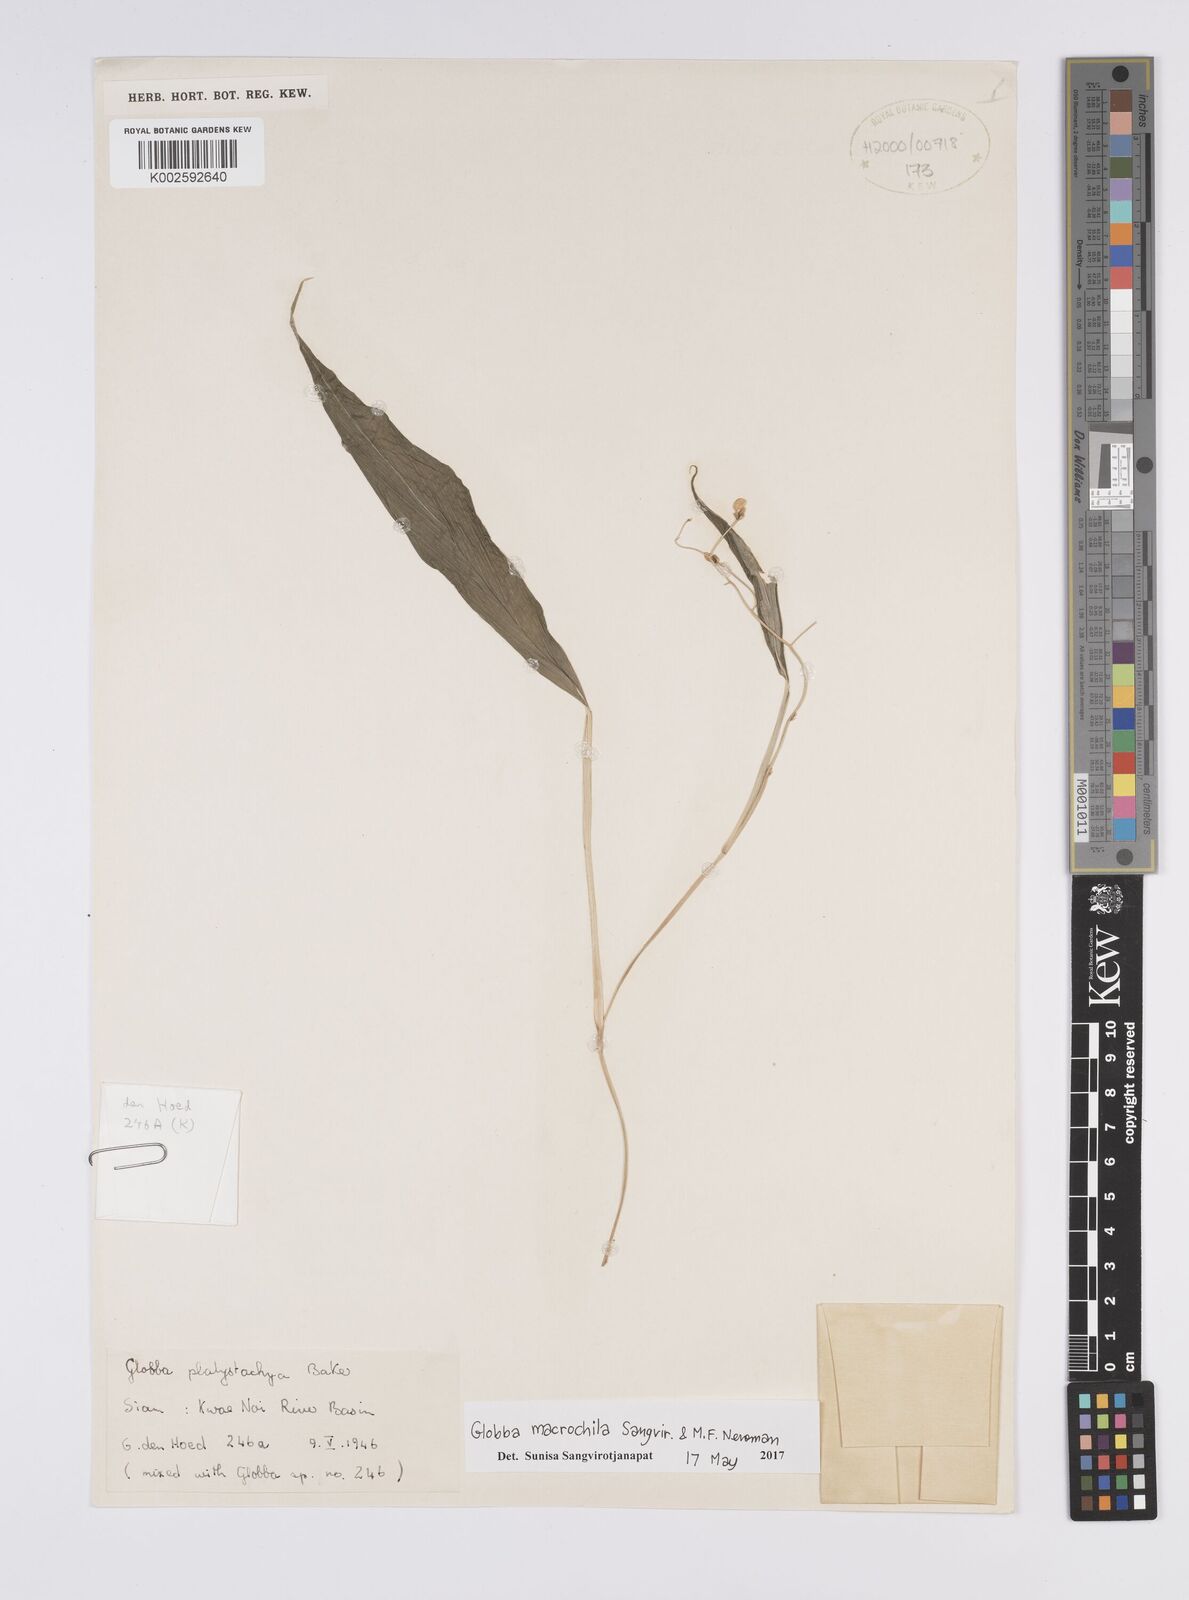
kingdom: Plantae
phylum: Tracheophyta
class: Liliopsida
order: Zingiberales
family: Zingiberaceae
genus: Globba
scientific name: Globba macrochila
